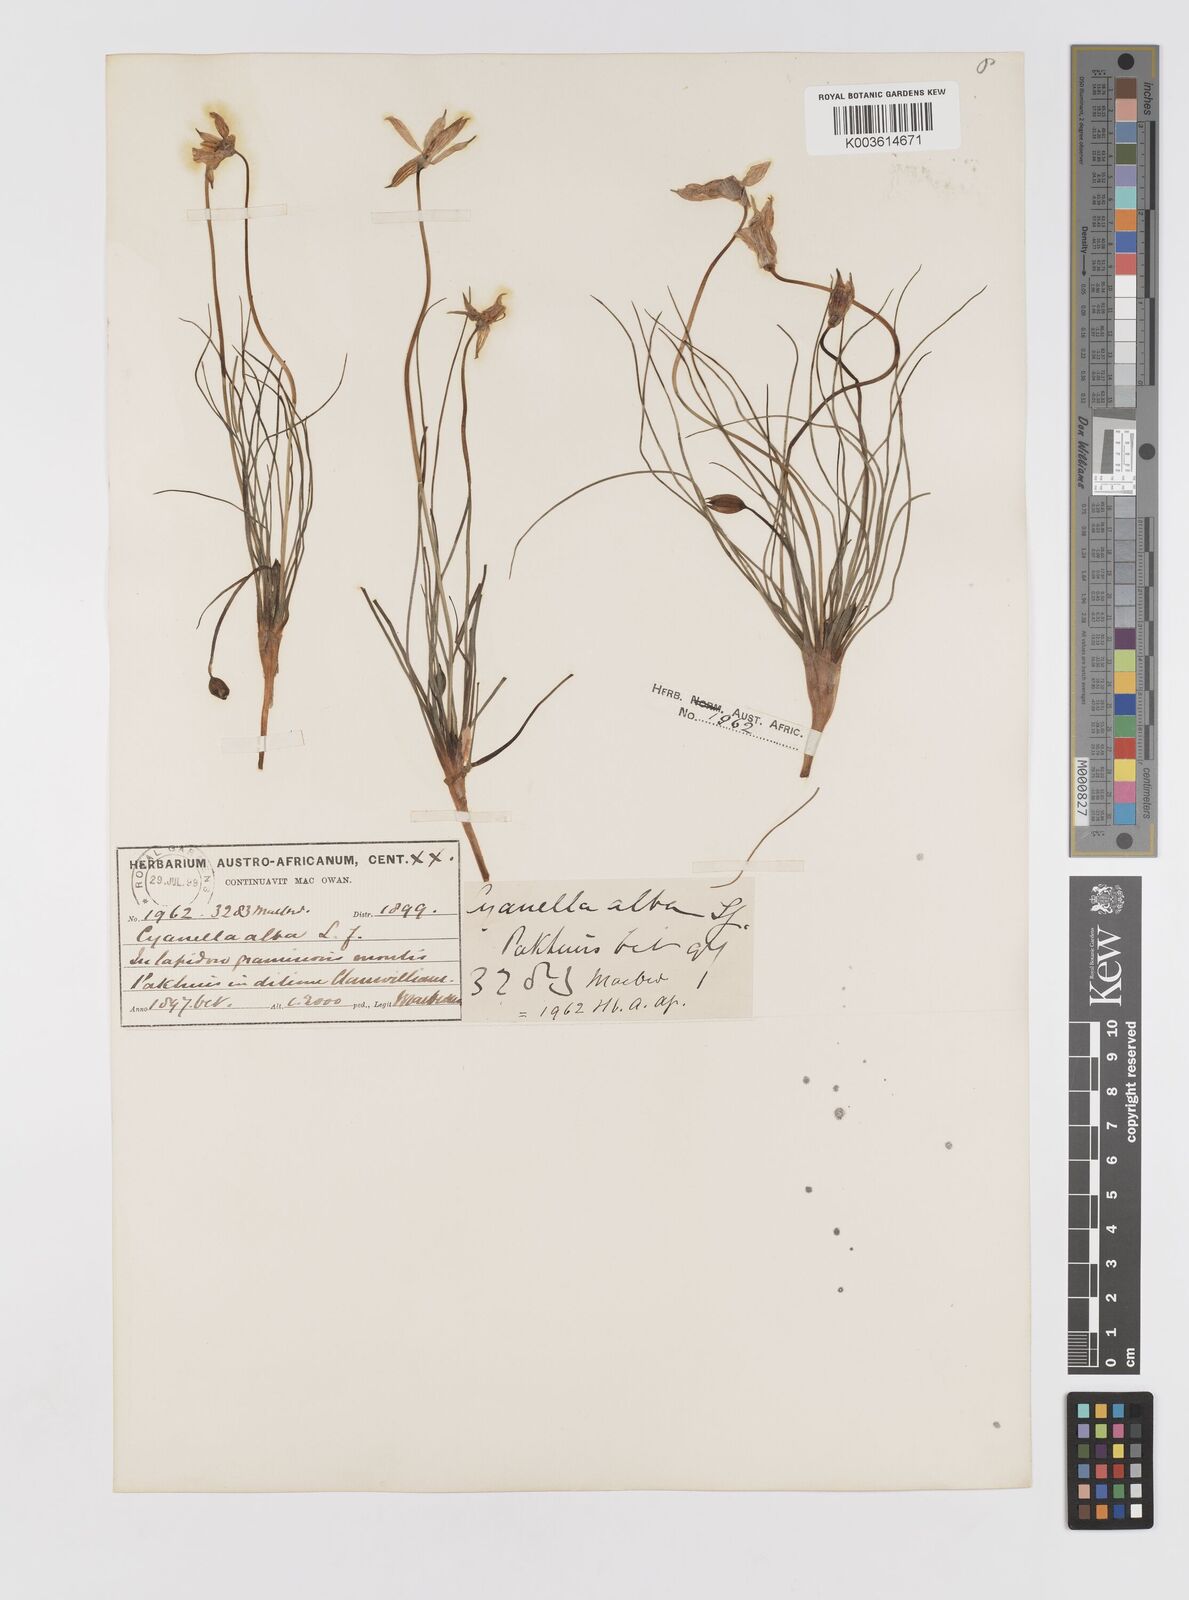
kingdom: Plantae
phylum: Tracheophyta
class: Liliopsida
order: Asparagales
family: Tecophilaeaceae
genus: Cyanella
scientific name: Cyanella alba
